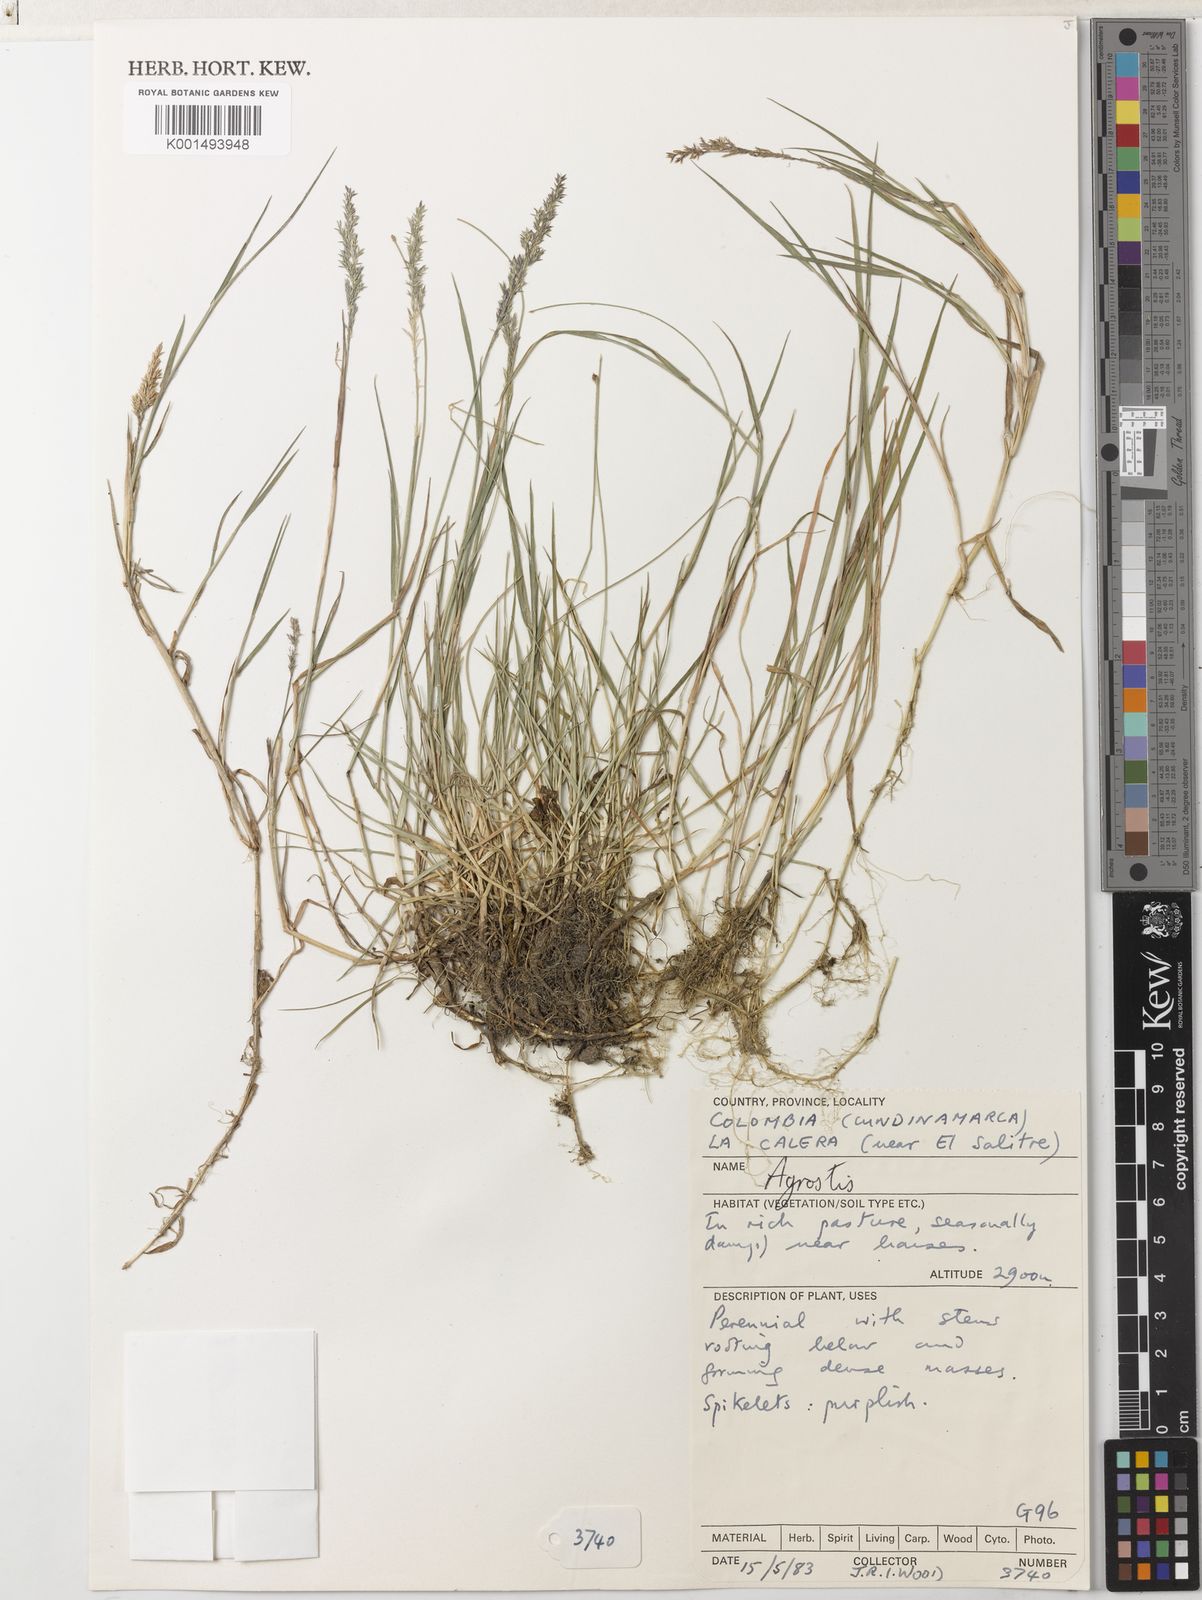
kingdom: Plantae
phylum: Tracheophyta
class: Liliopsida
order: Poales
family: Poaceae
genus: Agrostis
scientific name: Agrostis stolonifera
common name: Creeping bentgrass
